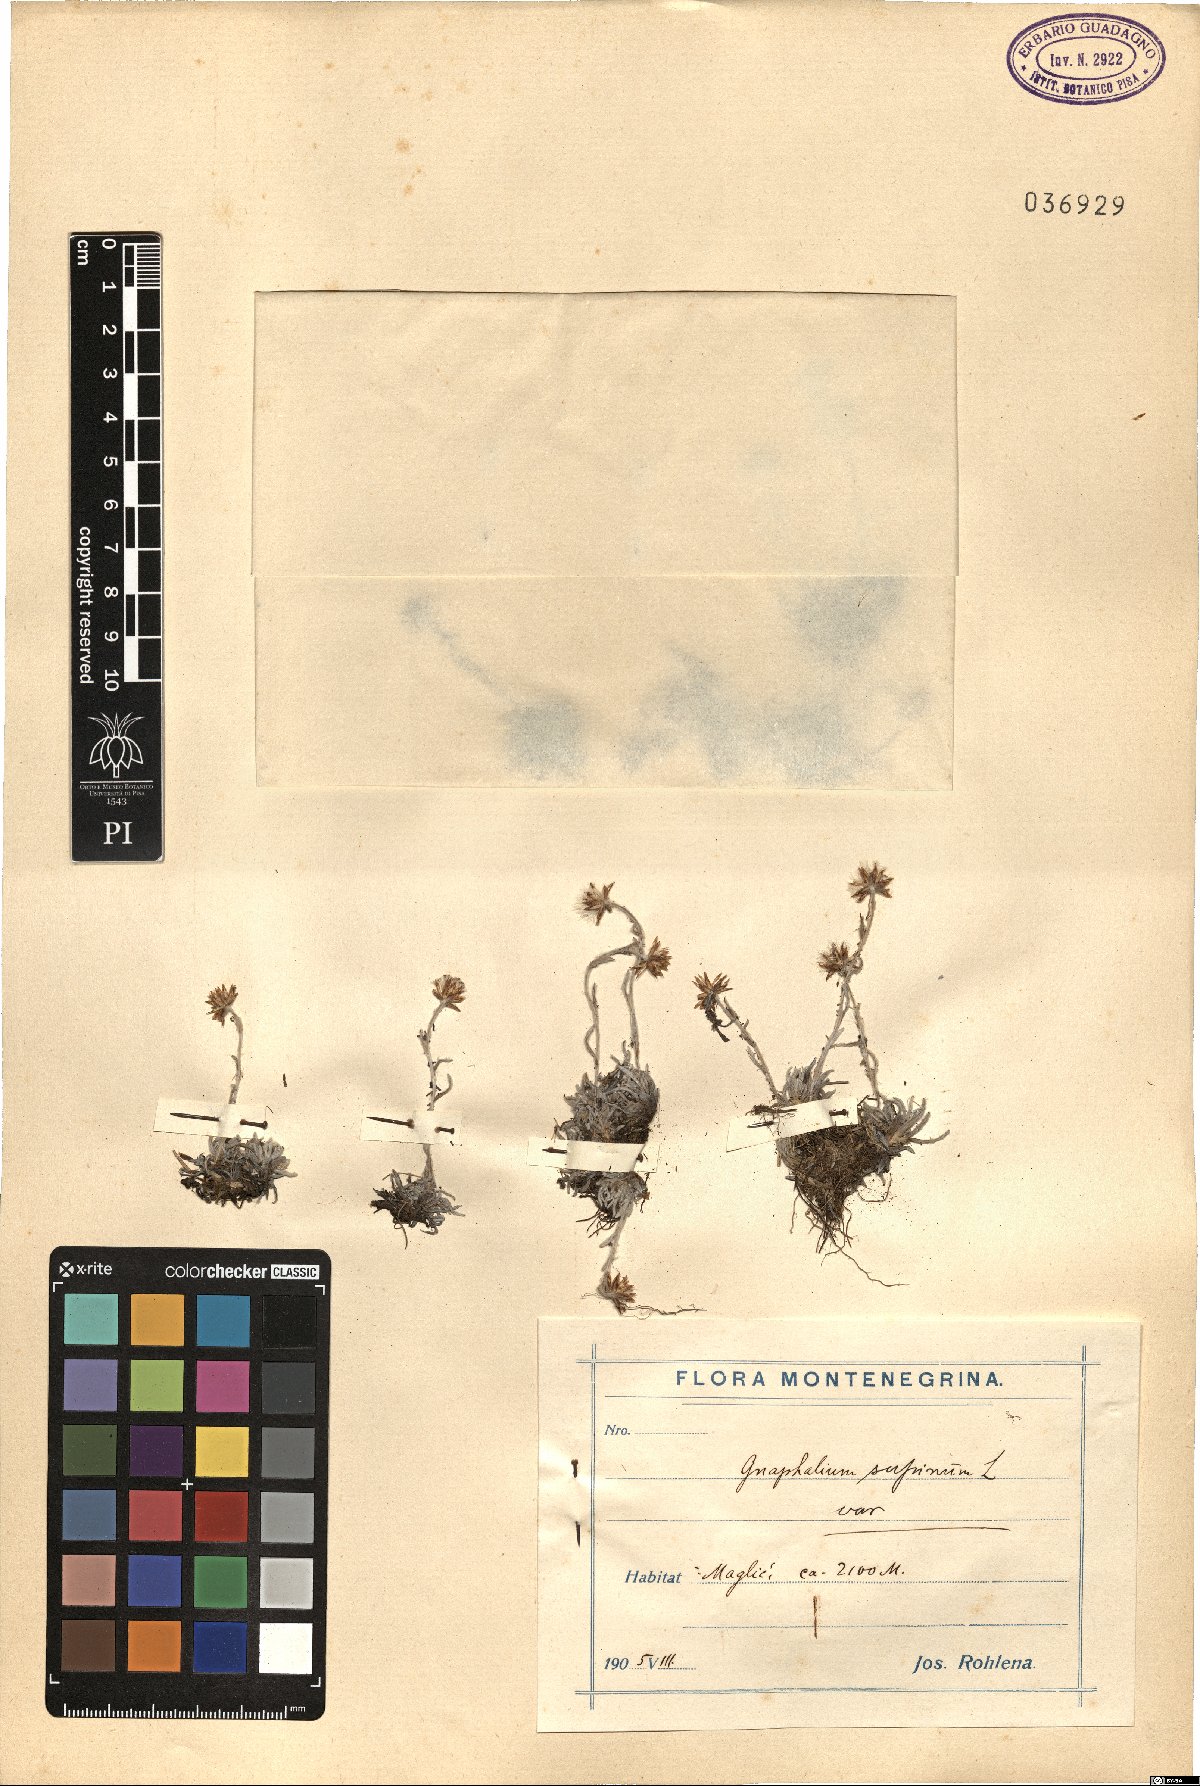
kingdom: Plantae
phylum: Tracheophyta
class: Magnoliopsida
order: Asterales
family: Asteraceae
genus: Omalotheca
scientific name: Omalotheca supina
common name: Alpine arctic-cudweed
